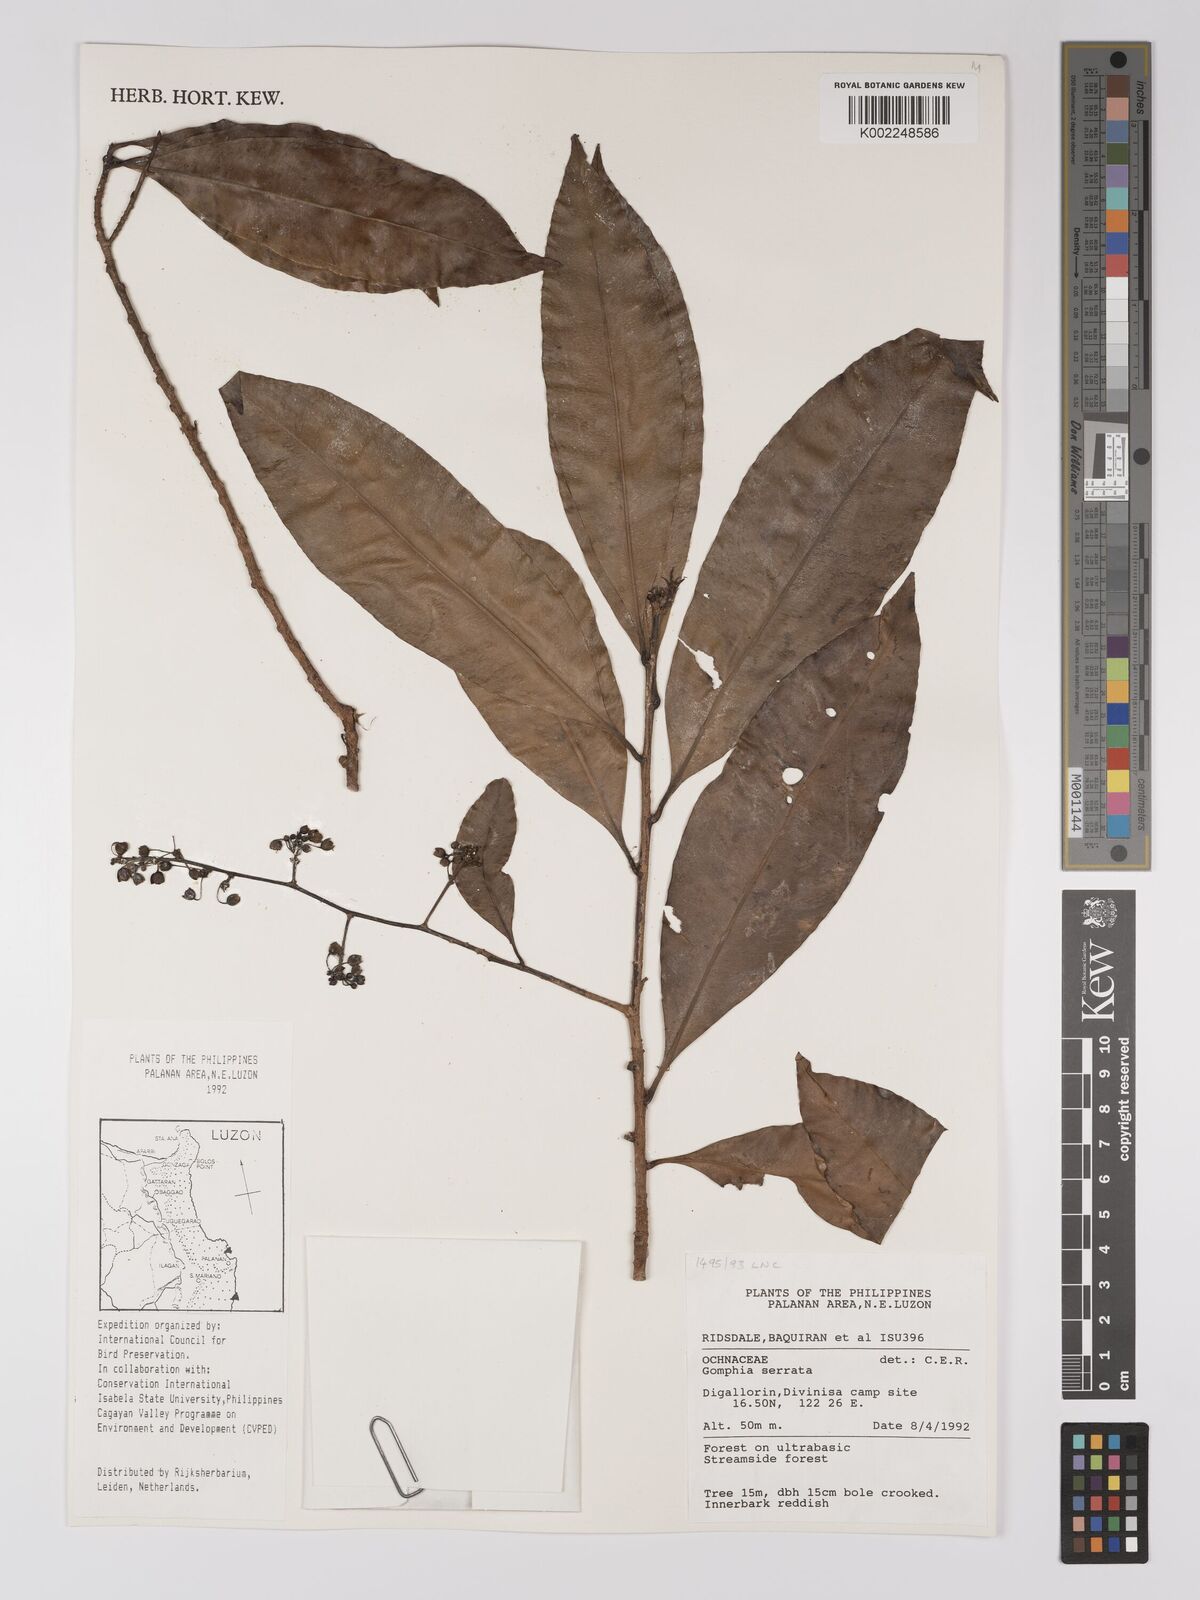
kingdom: Plantae
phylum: Tracheophyta
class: Magnoliopsida
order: Malpighiales
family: Ochnaceae
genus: Gomphia
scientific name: Gomphia serrata
